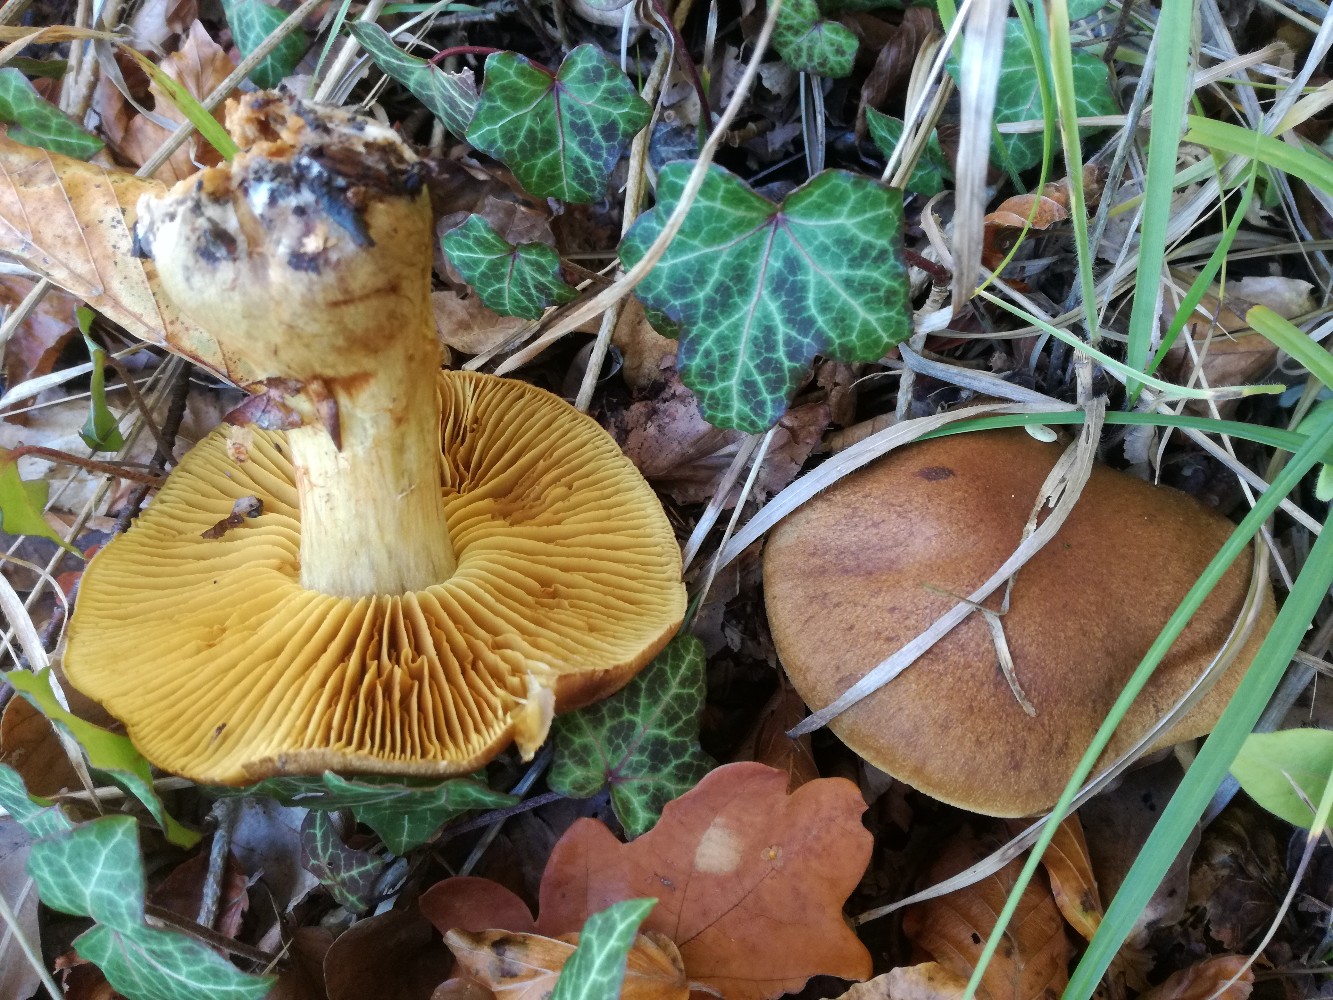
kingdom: Fungi
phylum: Basidiomycota
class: Agaricomycetes
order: Agaricales
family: Cortinariaceae
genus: Cortinarius
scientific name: Cortinarius subcotoneus
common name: gyldenbladet slørhat
